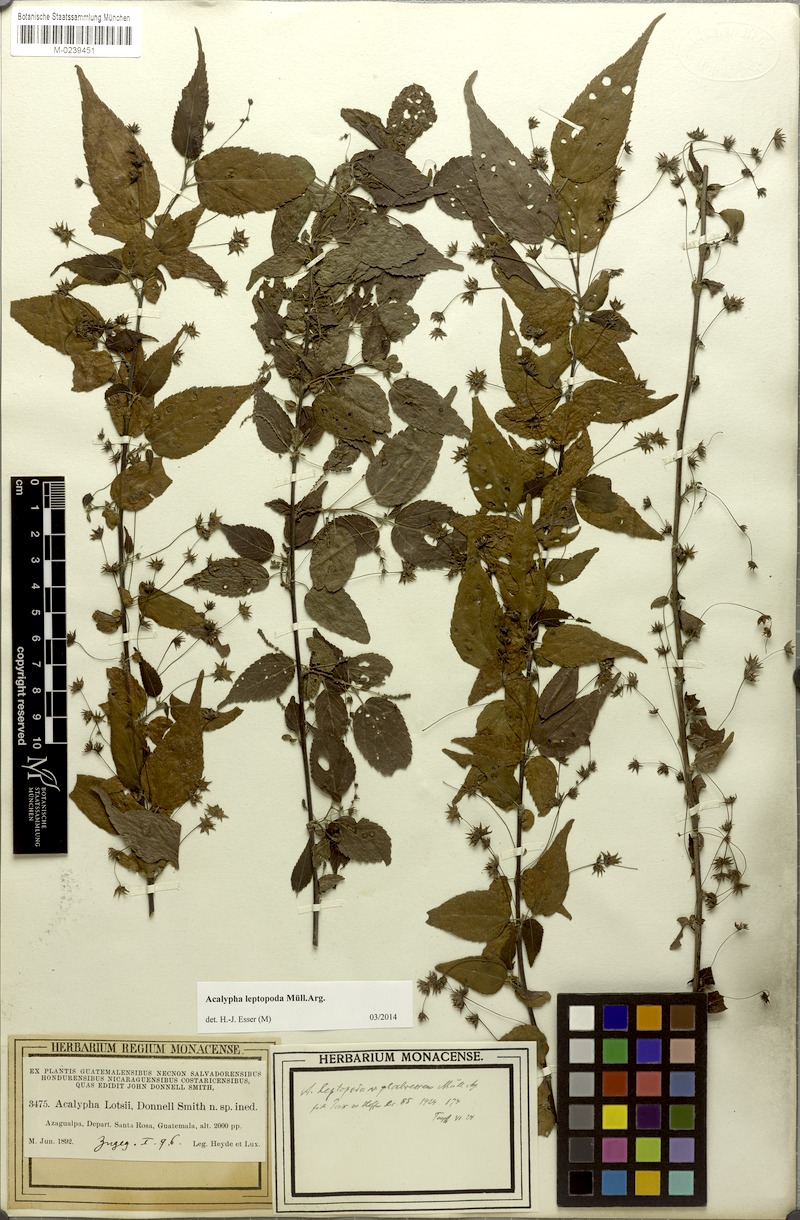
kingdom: Plantae
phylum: Tracheophyta
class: Magnoliopsida
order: Malpighiales
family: Euphorbiaceae
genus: Acalypha
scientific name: Acalypha leptopoda
